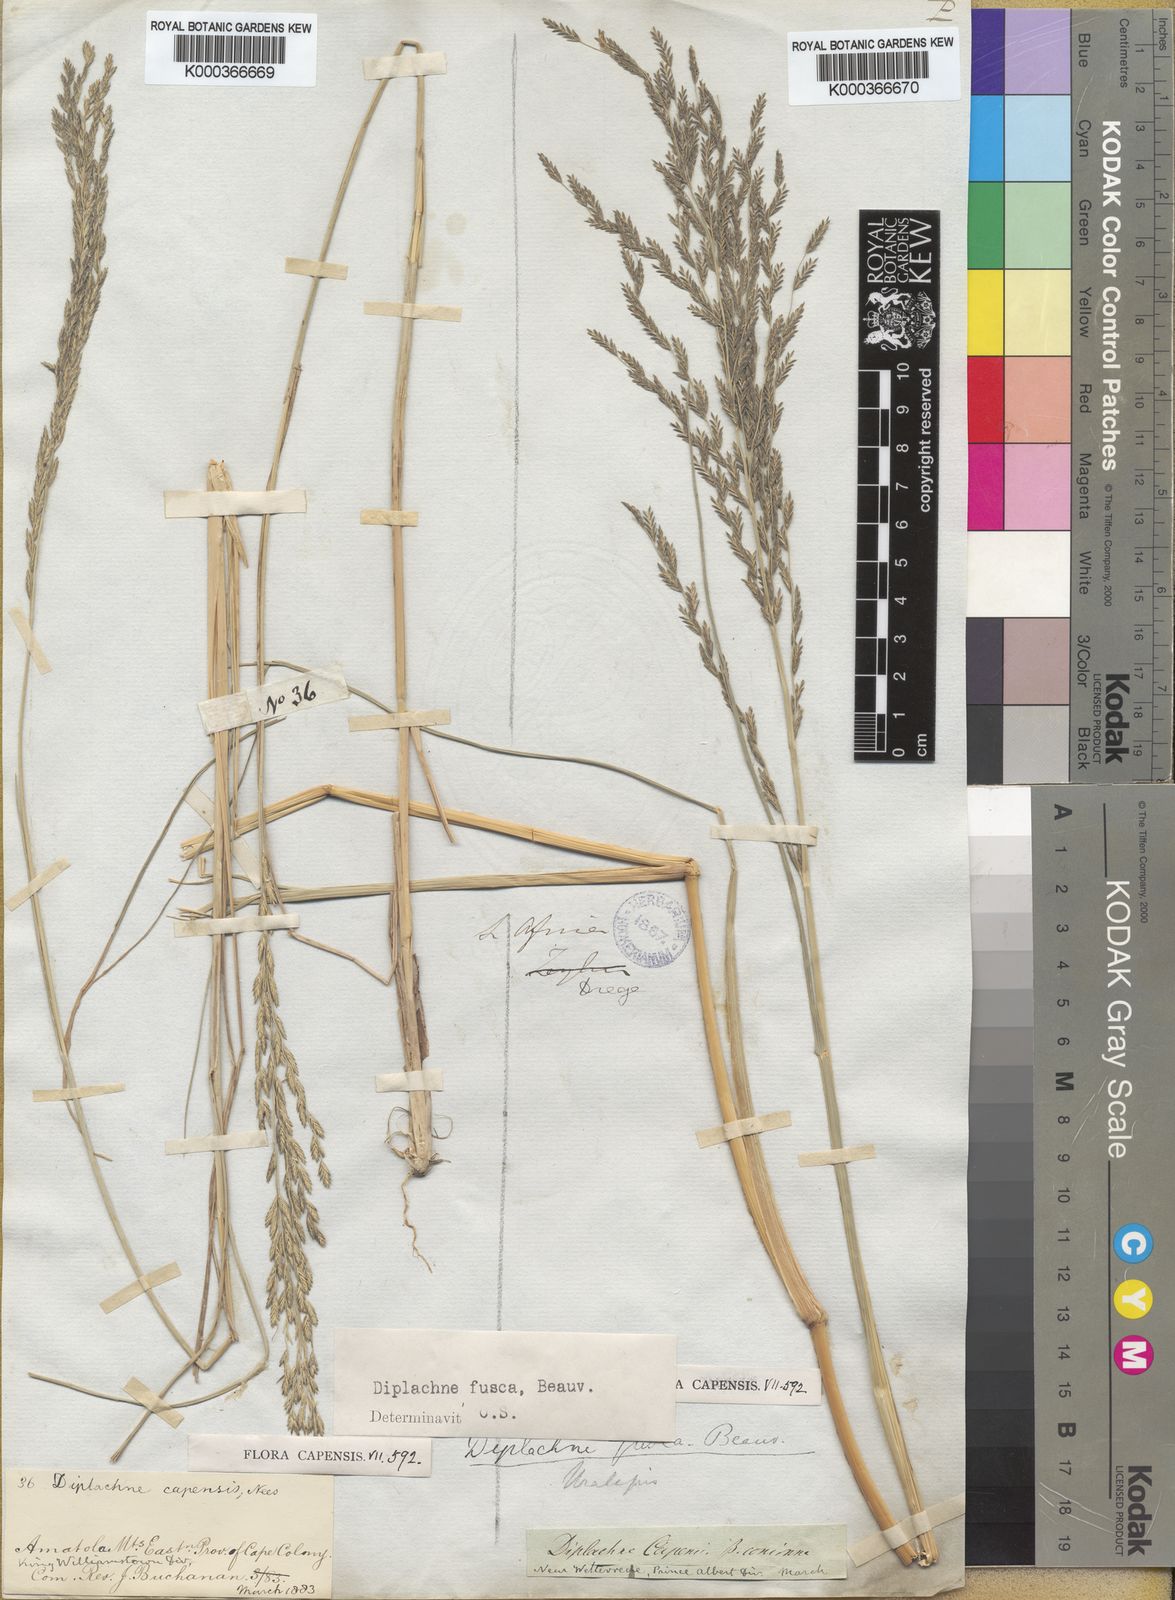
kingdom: Plantae
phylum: Tracheophyta
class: Liliopsida
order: Poales
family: Poaceae
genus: Diplachne
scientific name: Diplachne fusca
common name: Brown beetle grass
